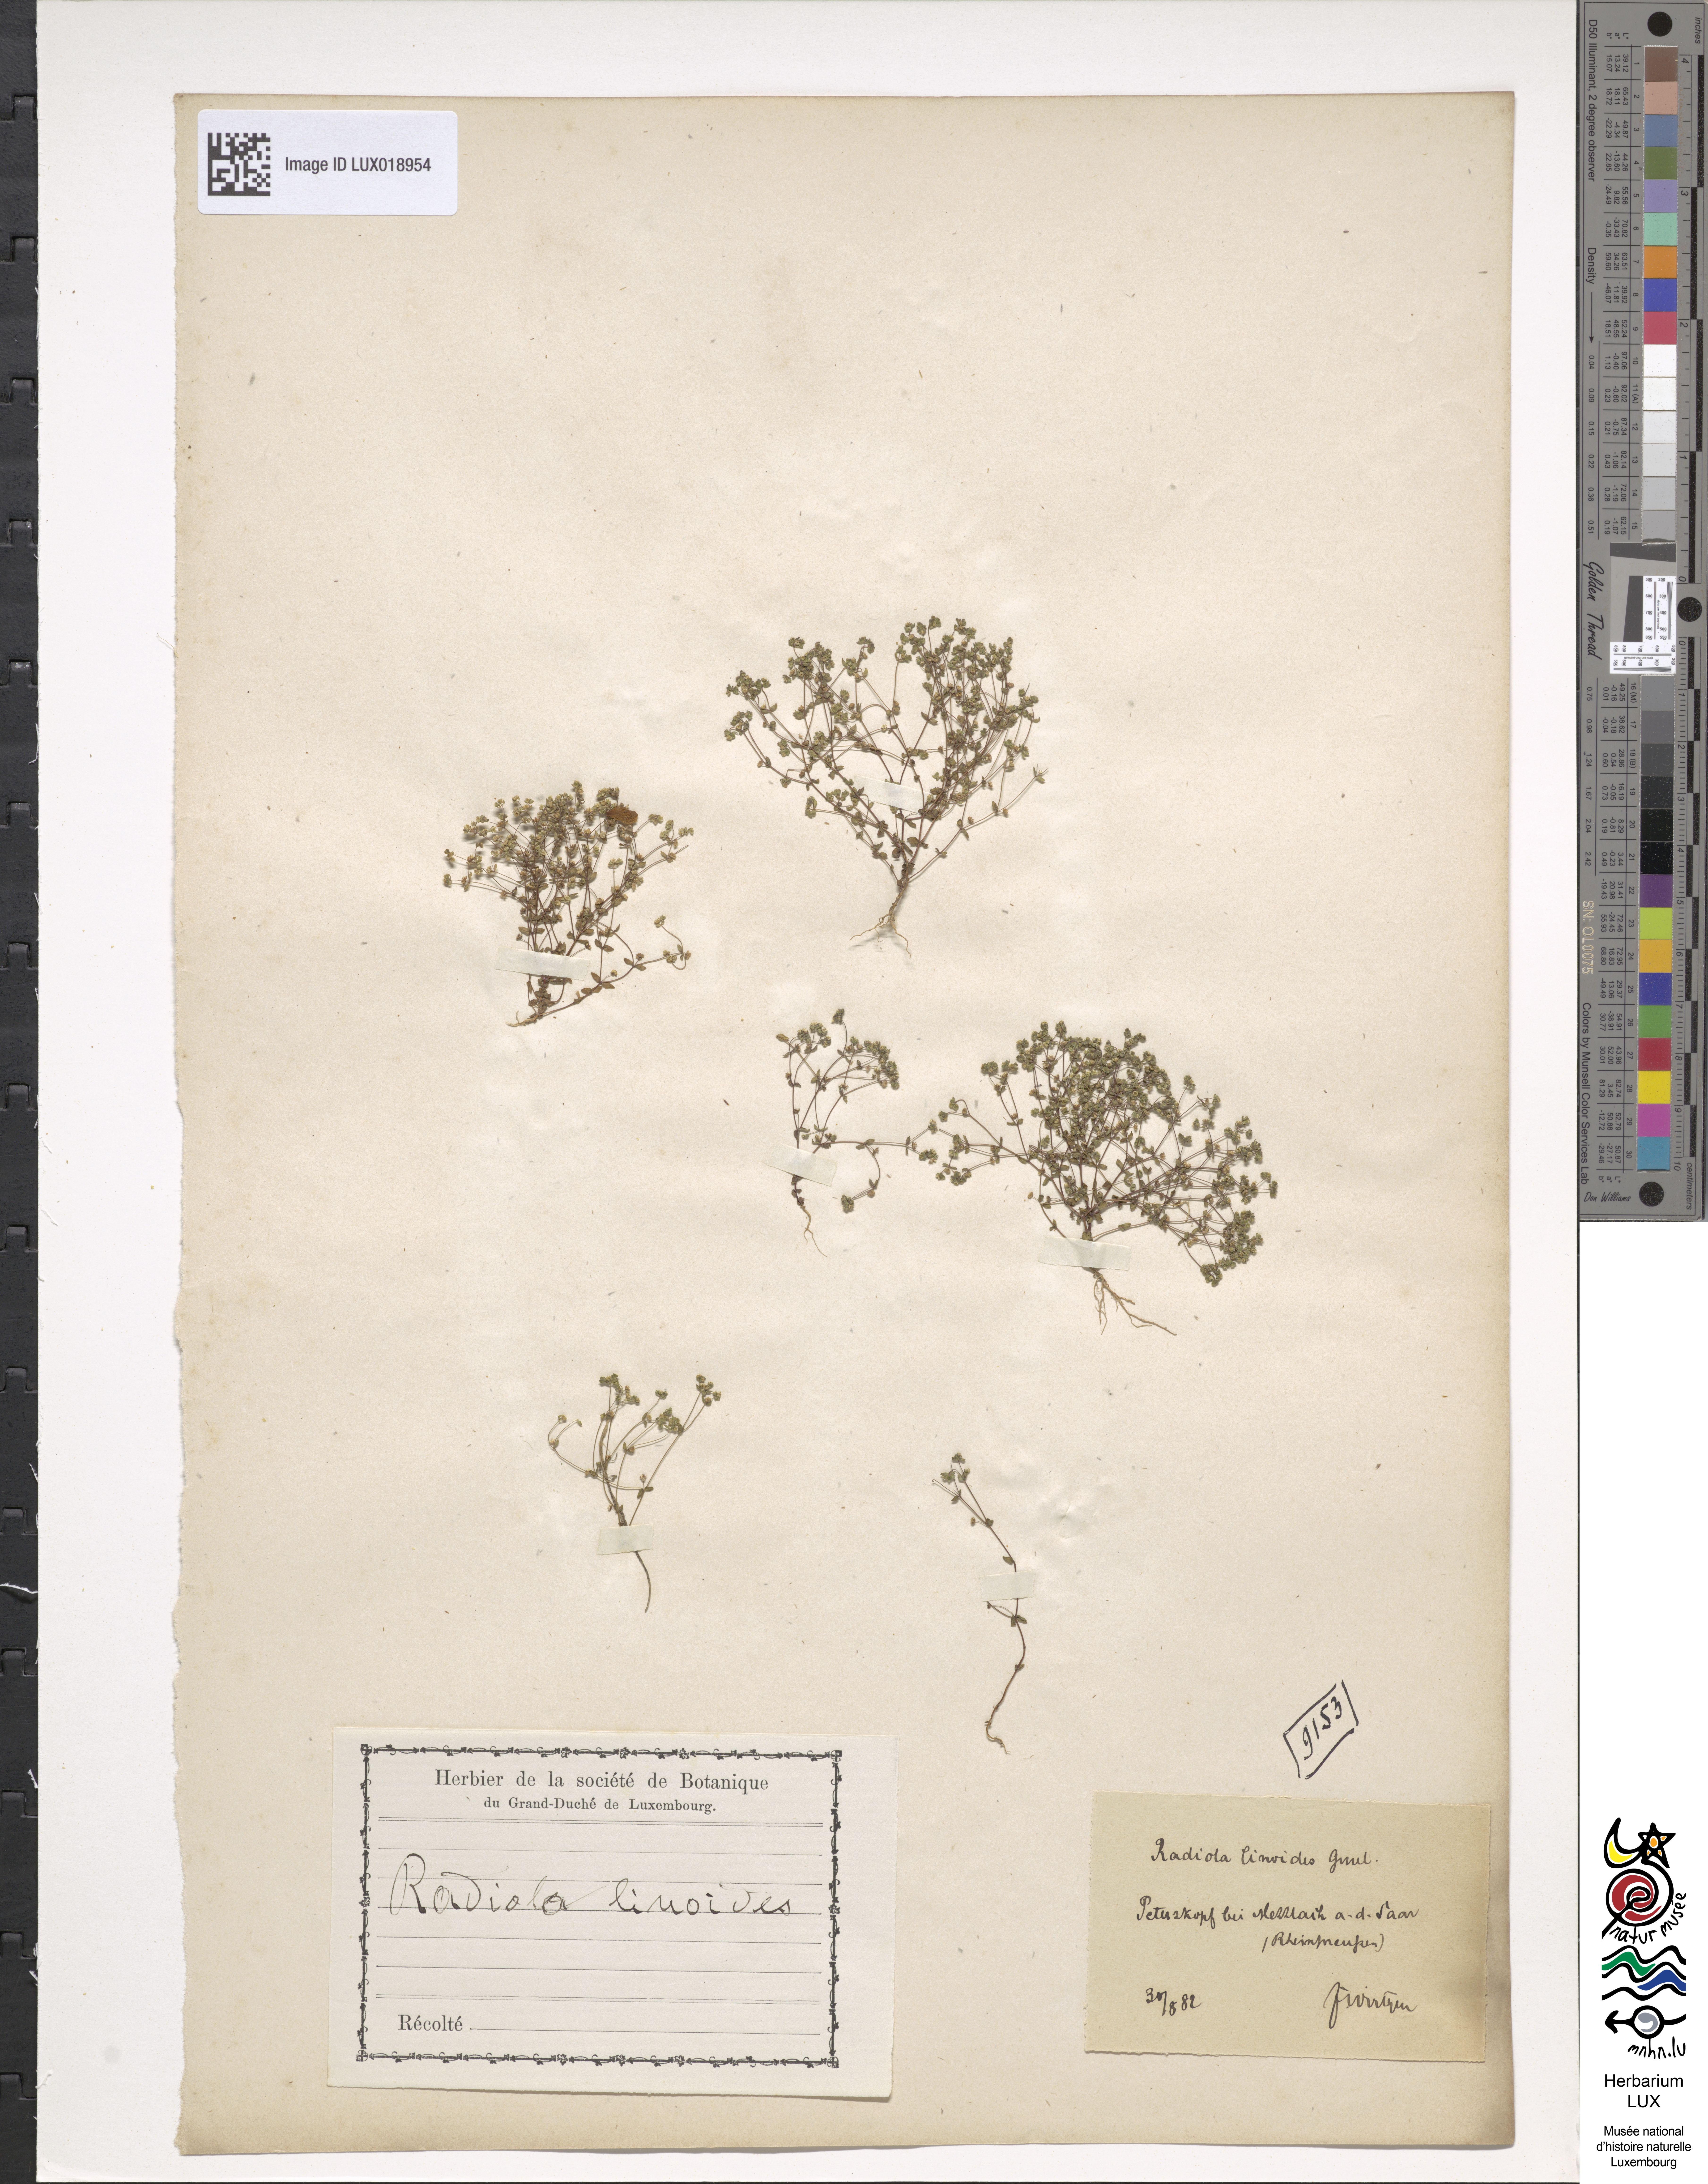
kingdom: Plantae
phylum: Tracheophyta
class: Magnoliopsida
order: Malpighiales
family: Linaceae
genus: Radiola
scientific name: Radiola linoides
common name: Allseed
